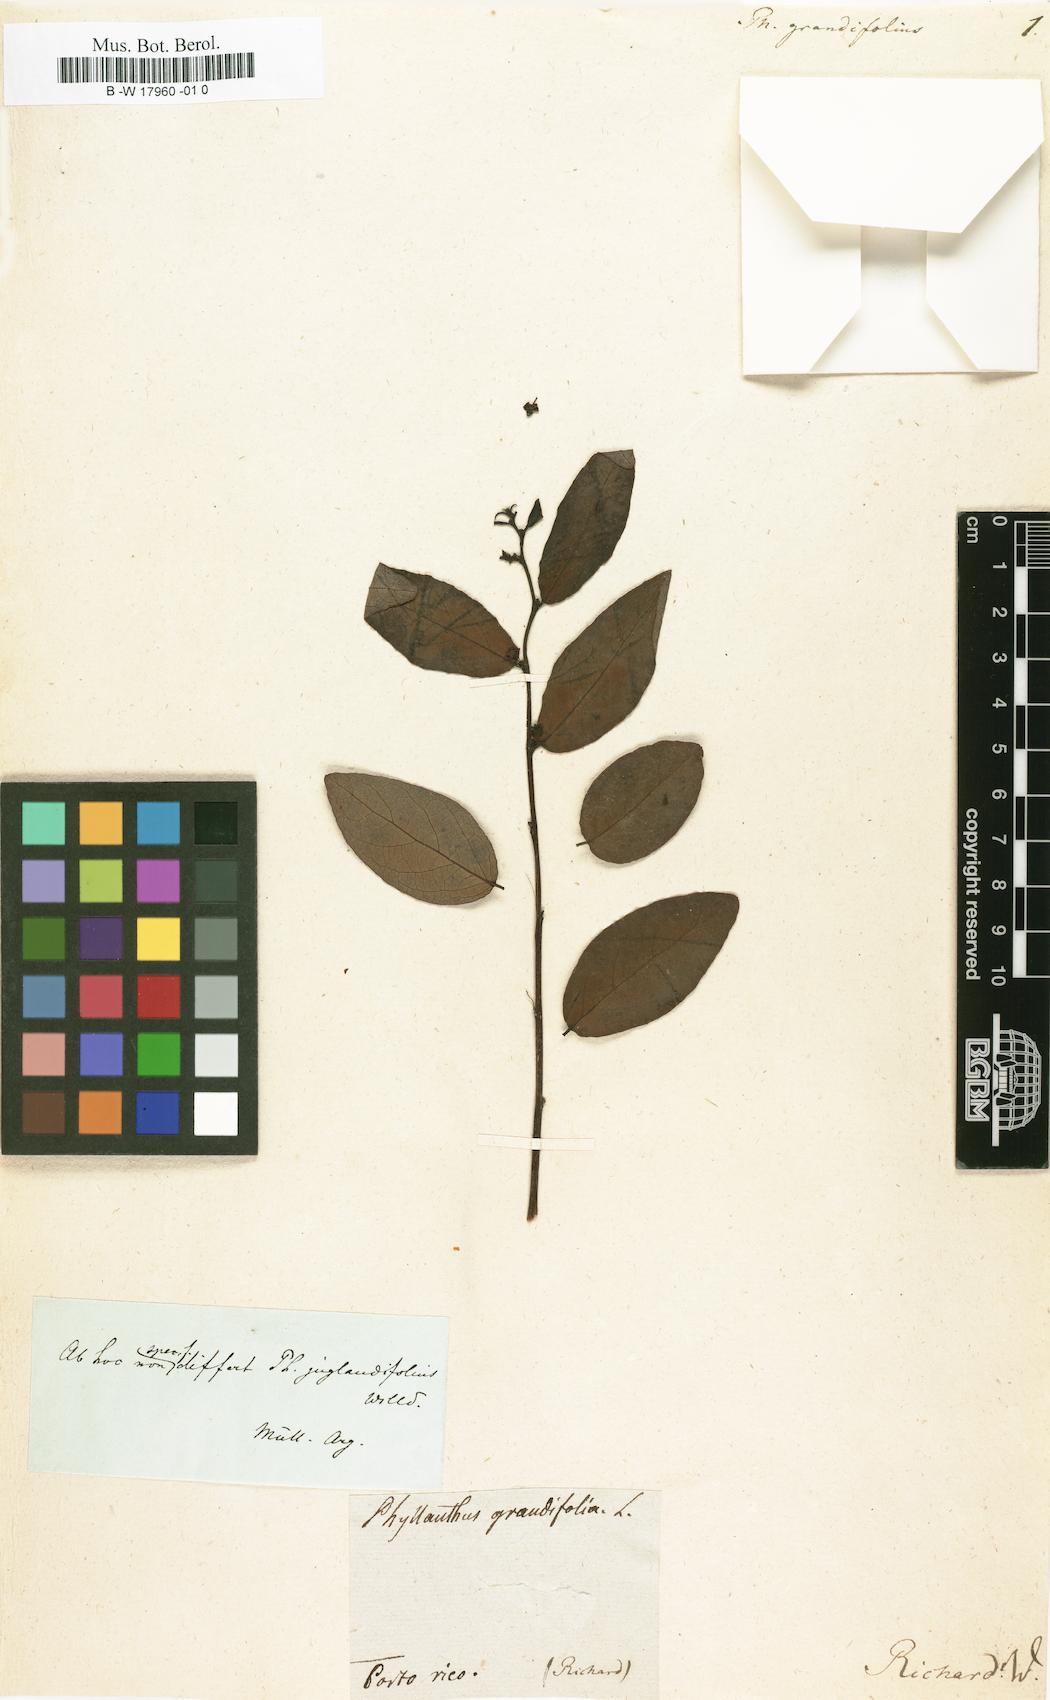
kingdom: Plantae
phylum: Tracheophyta
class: Magnoliopsida
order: Malpighiales
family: Phyllanthaceae
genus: Phyllanthus
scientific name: Phyllanthus ovatus
